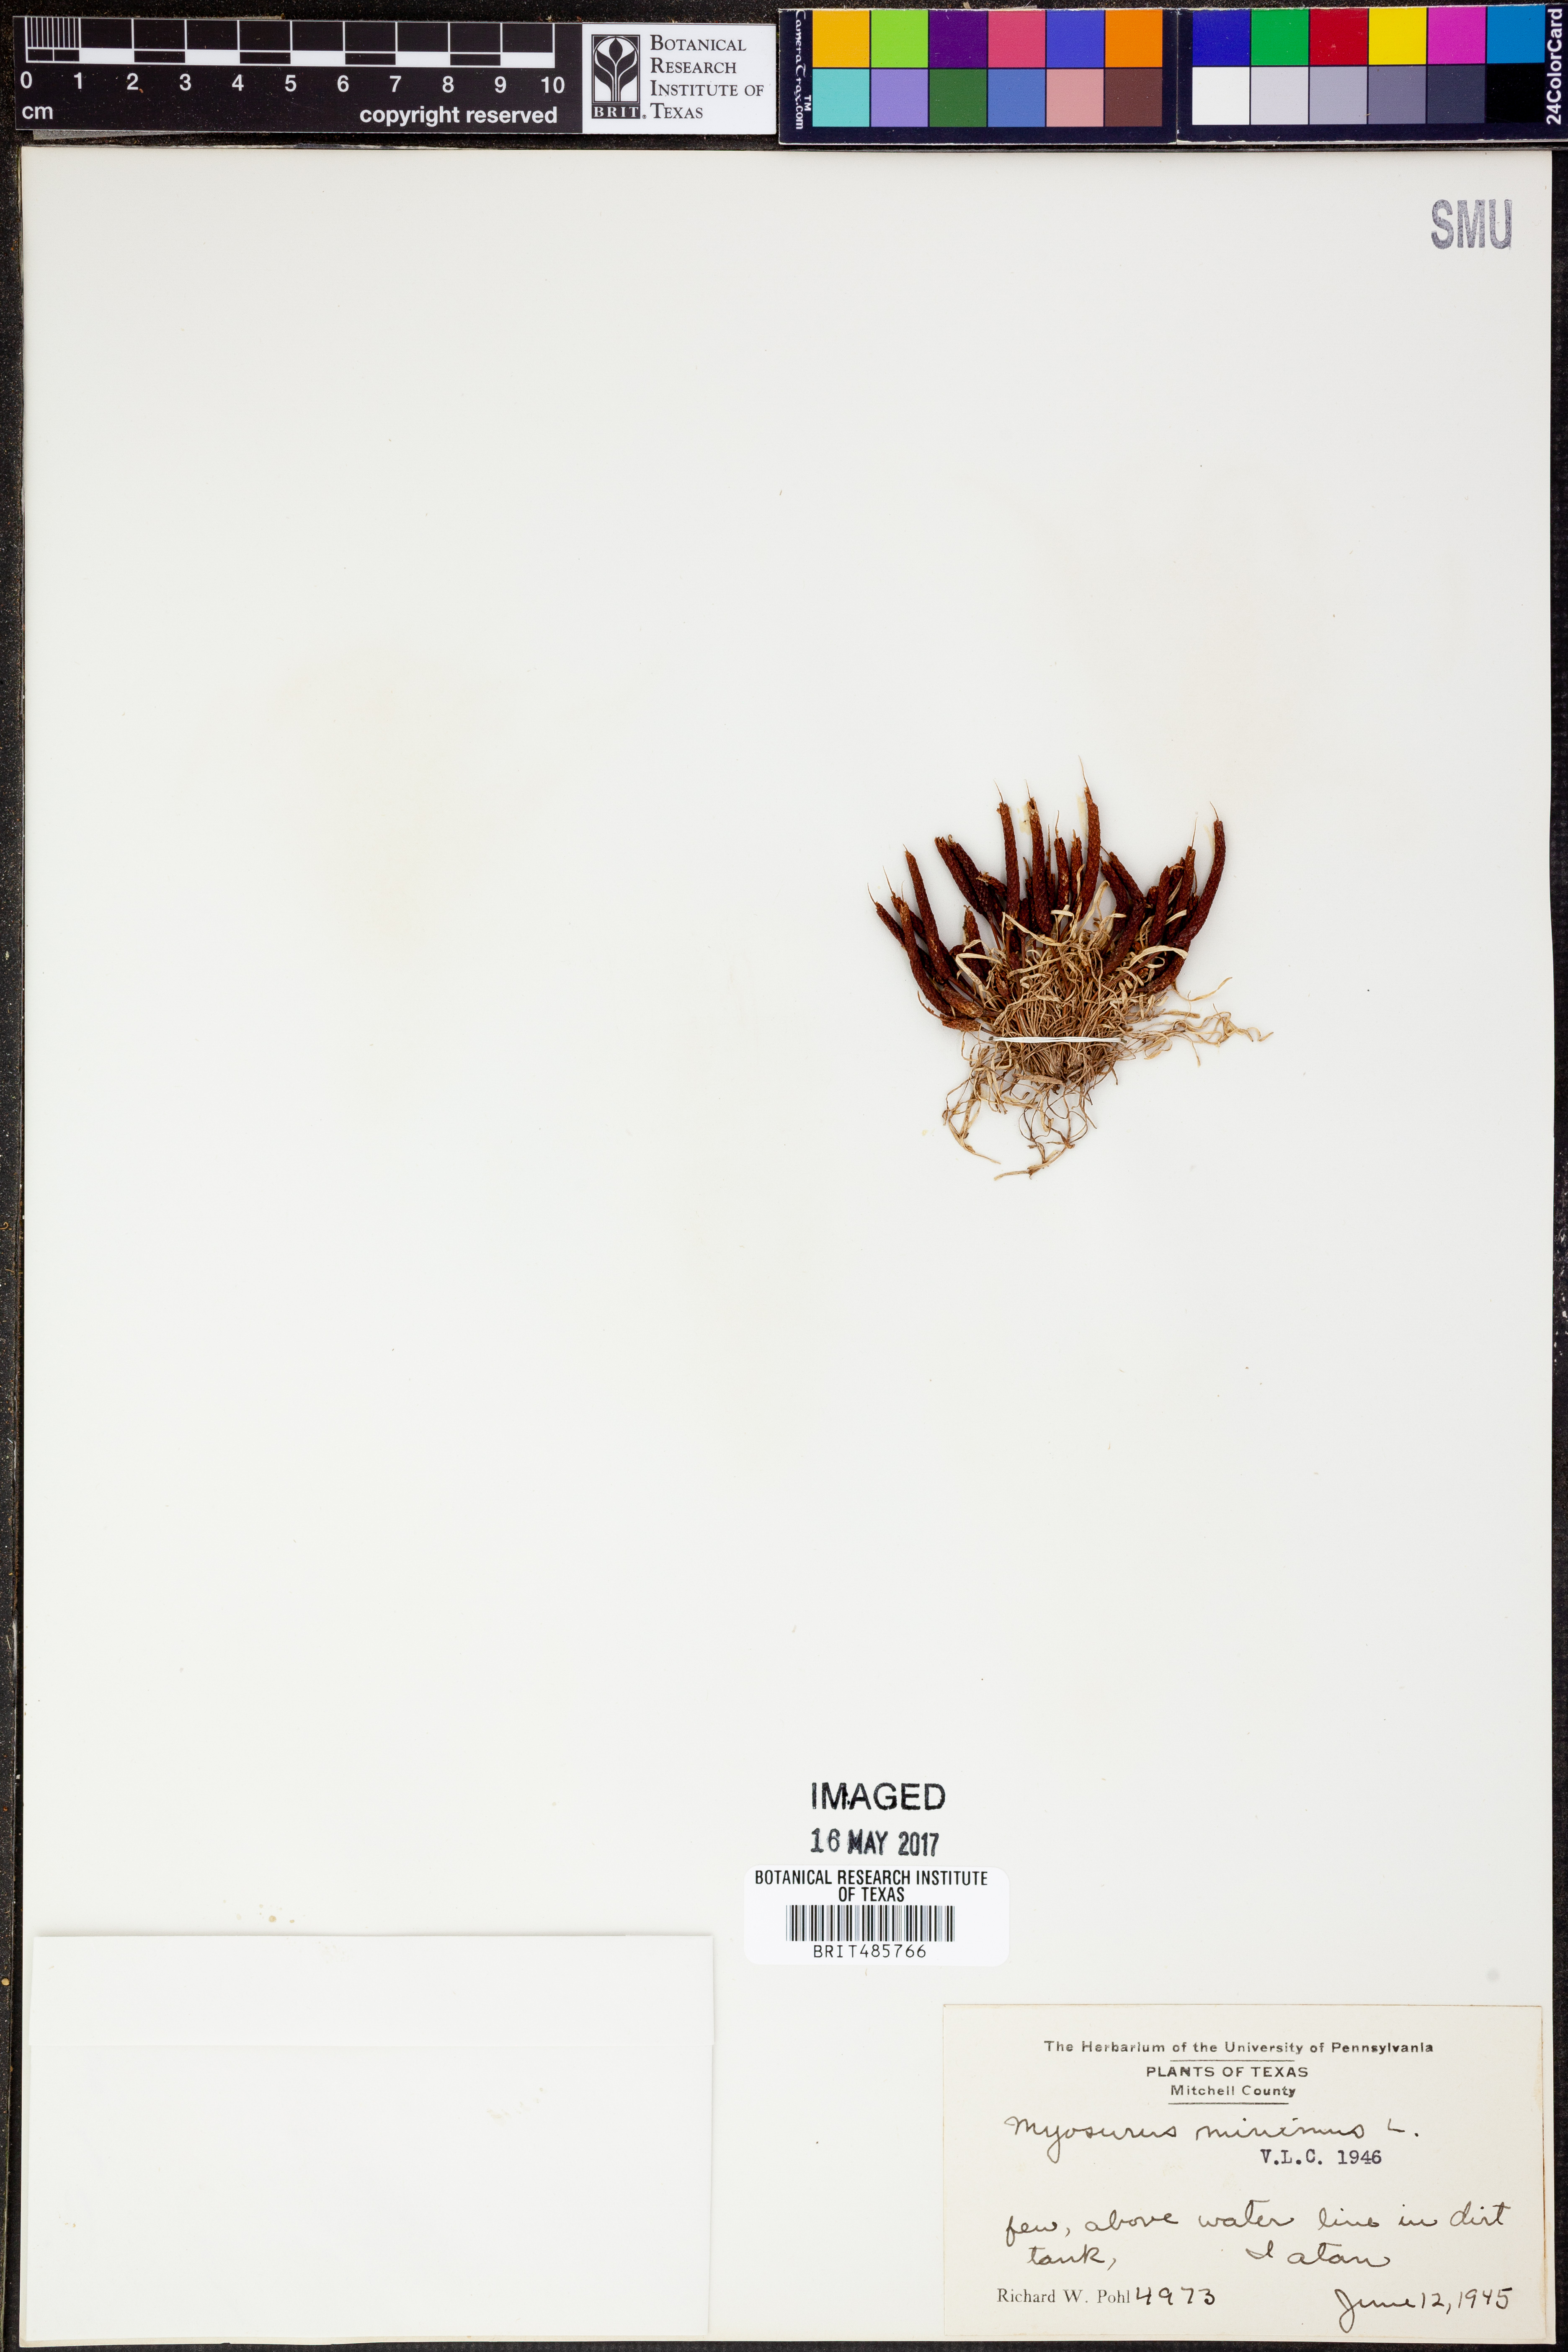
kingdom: Plantae
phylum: Tracheophyta
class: Magnoliopsida
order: Ranunculales
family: Ranunculaceae
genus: Myosurus
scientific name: Myosurus minimus
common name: Mousetail
